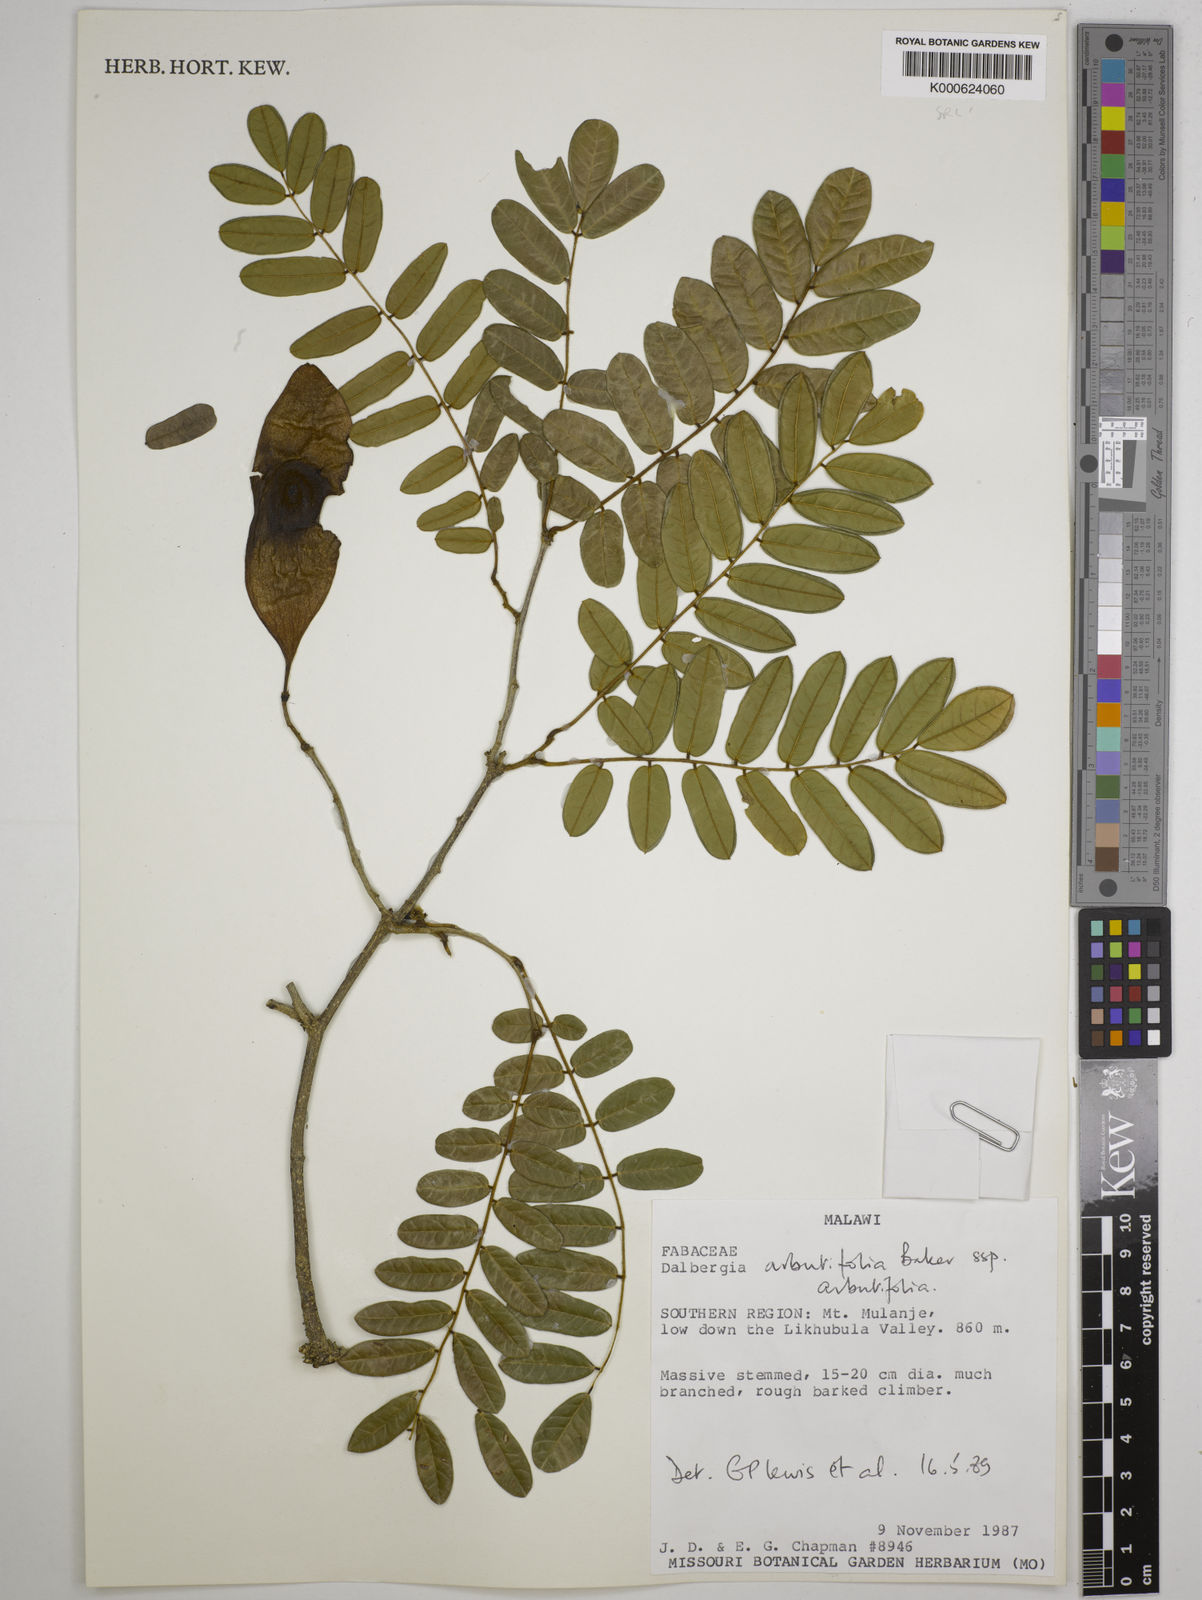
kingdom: Plantae
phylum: Tracheophyta
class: Magnoliopsida
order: Fabales
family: Fabaceae
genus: Dalbergia
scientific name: Dalbergia
